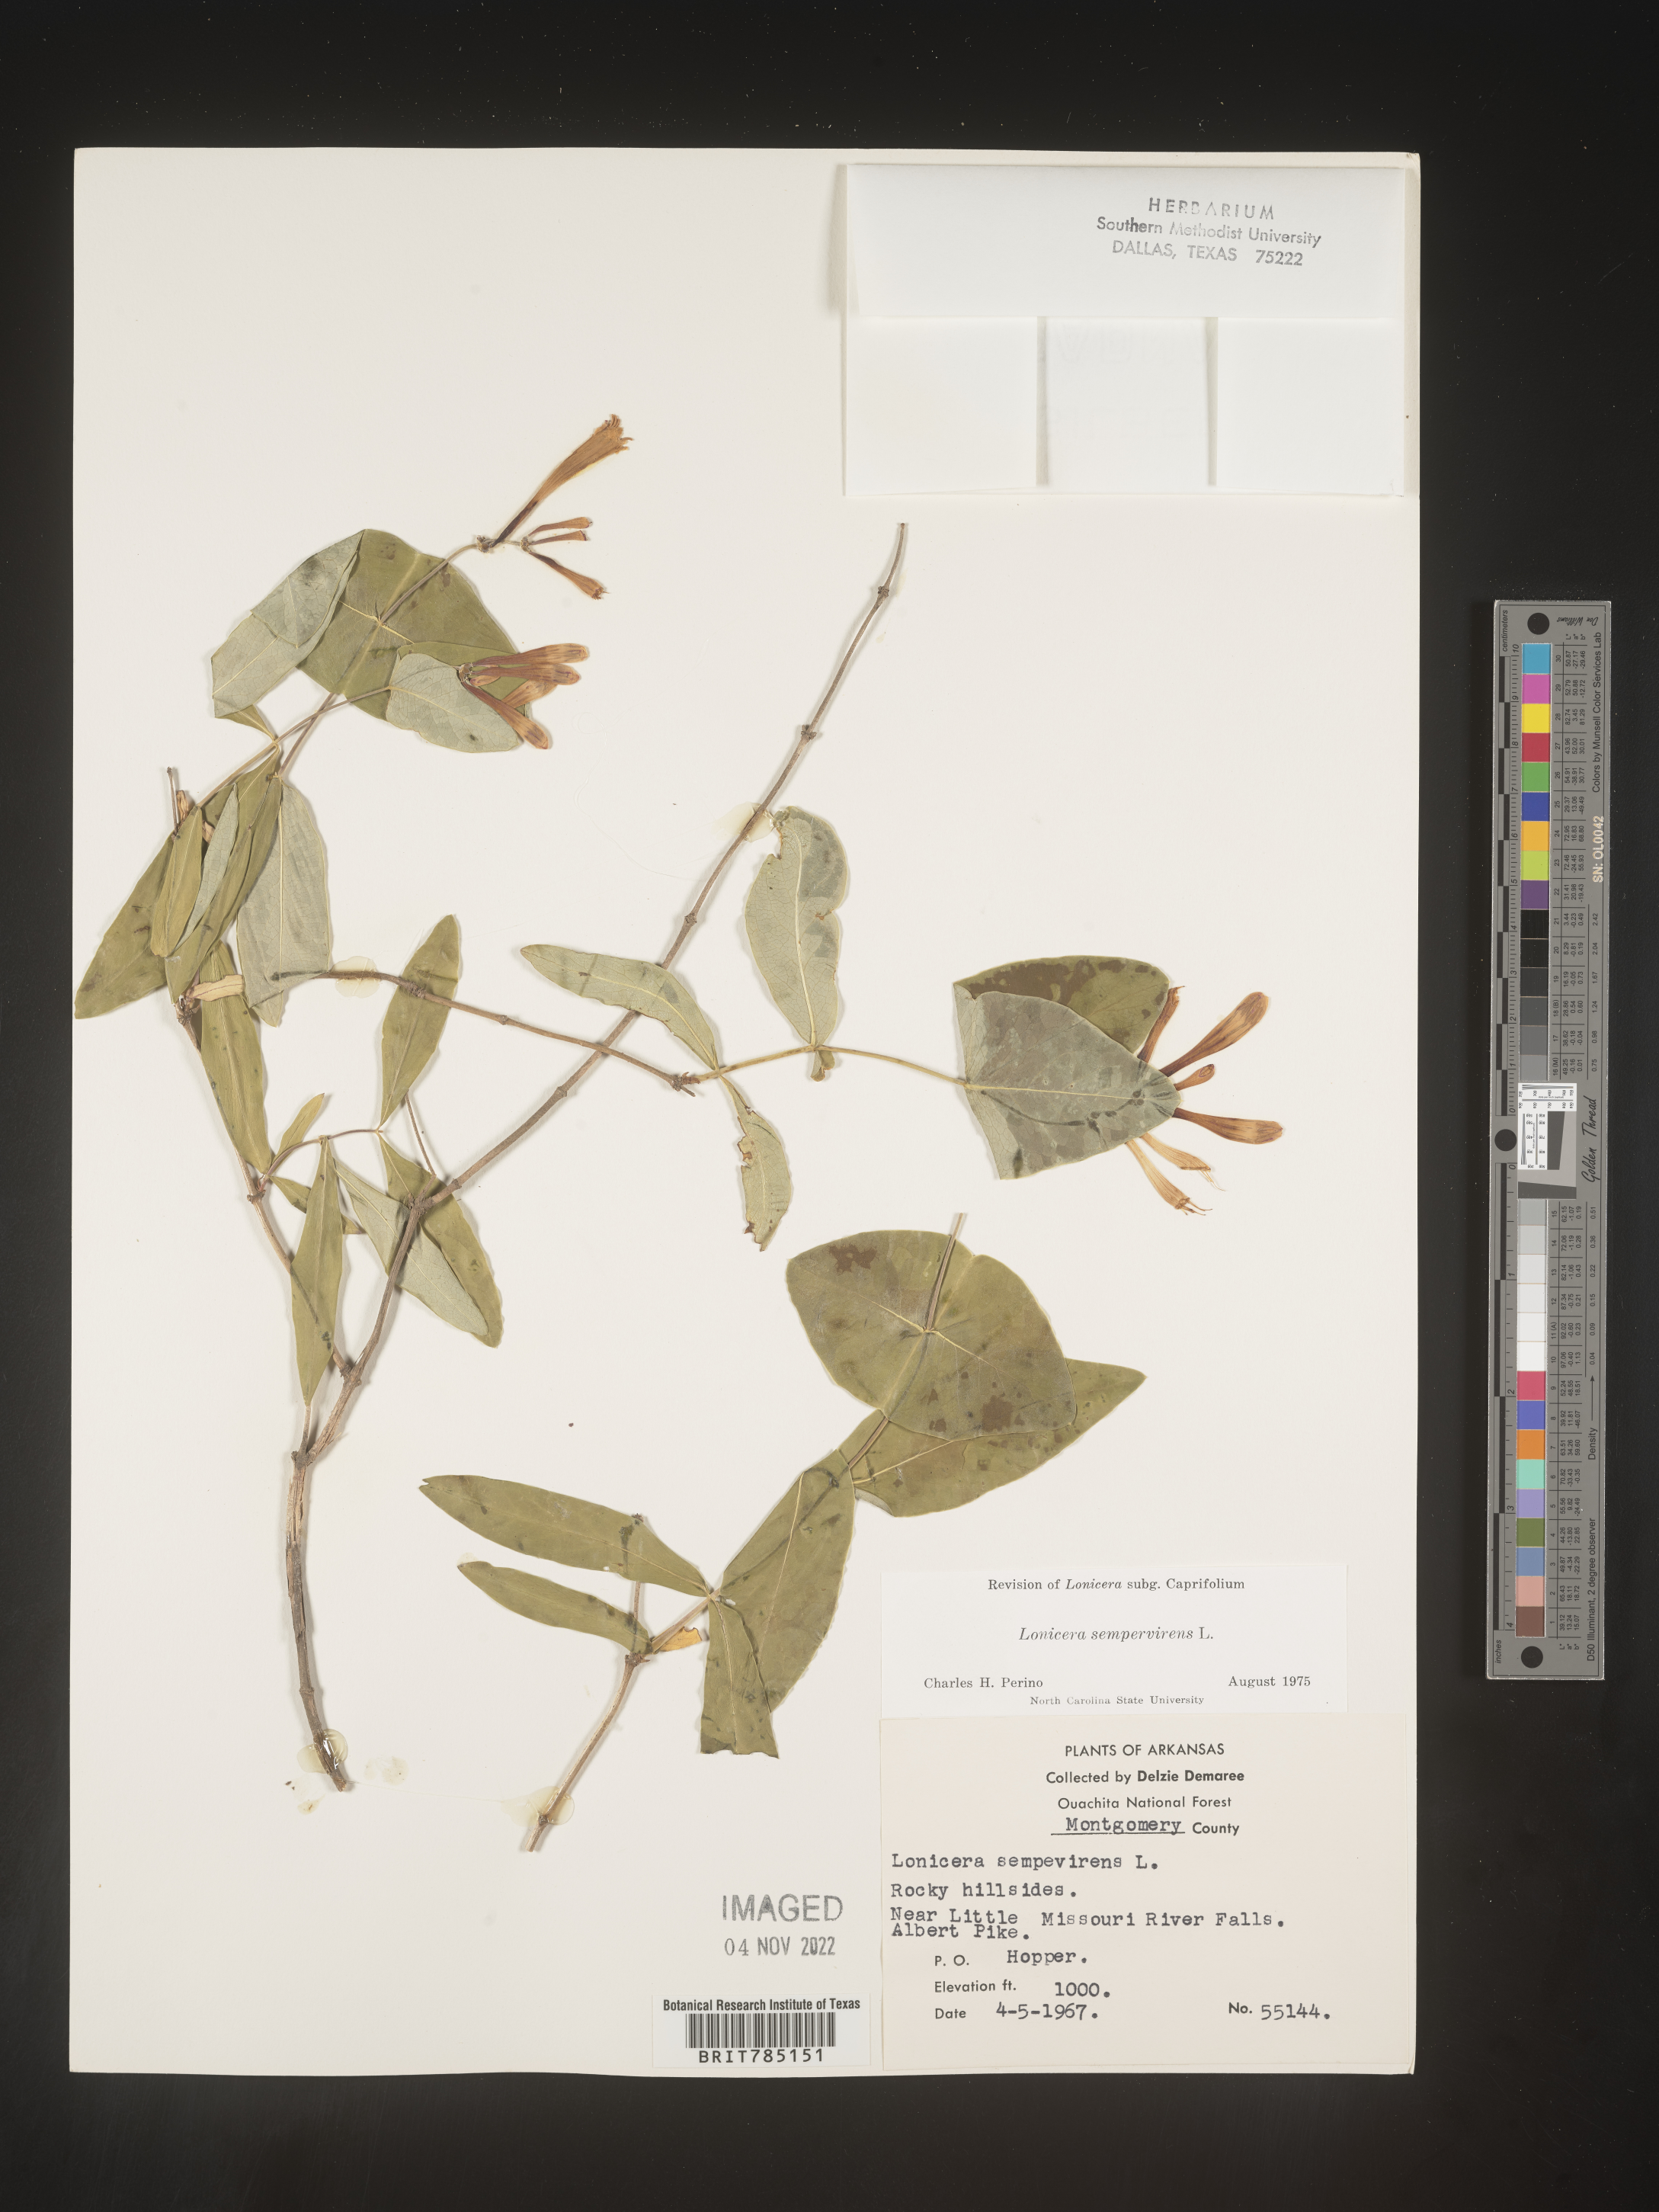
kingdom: Plantae
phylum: Tracheophyta
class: Magnoliopsida
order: Dipsacales
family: Caprifoliaceae
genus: Lonicera
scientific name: Lonicera sempervirens
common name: Coral honeysuckle
